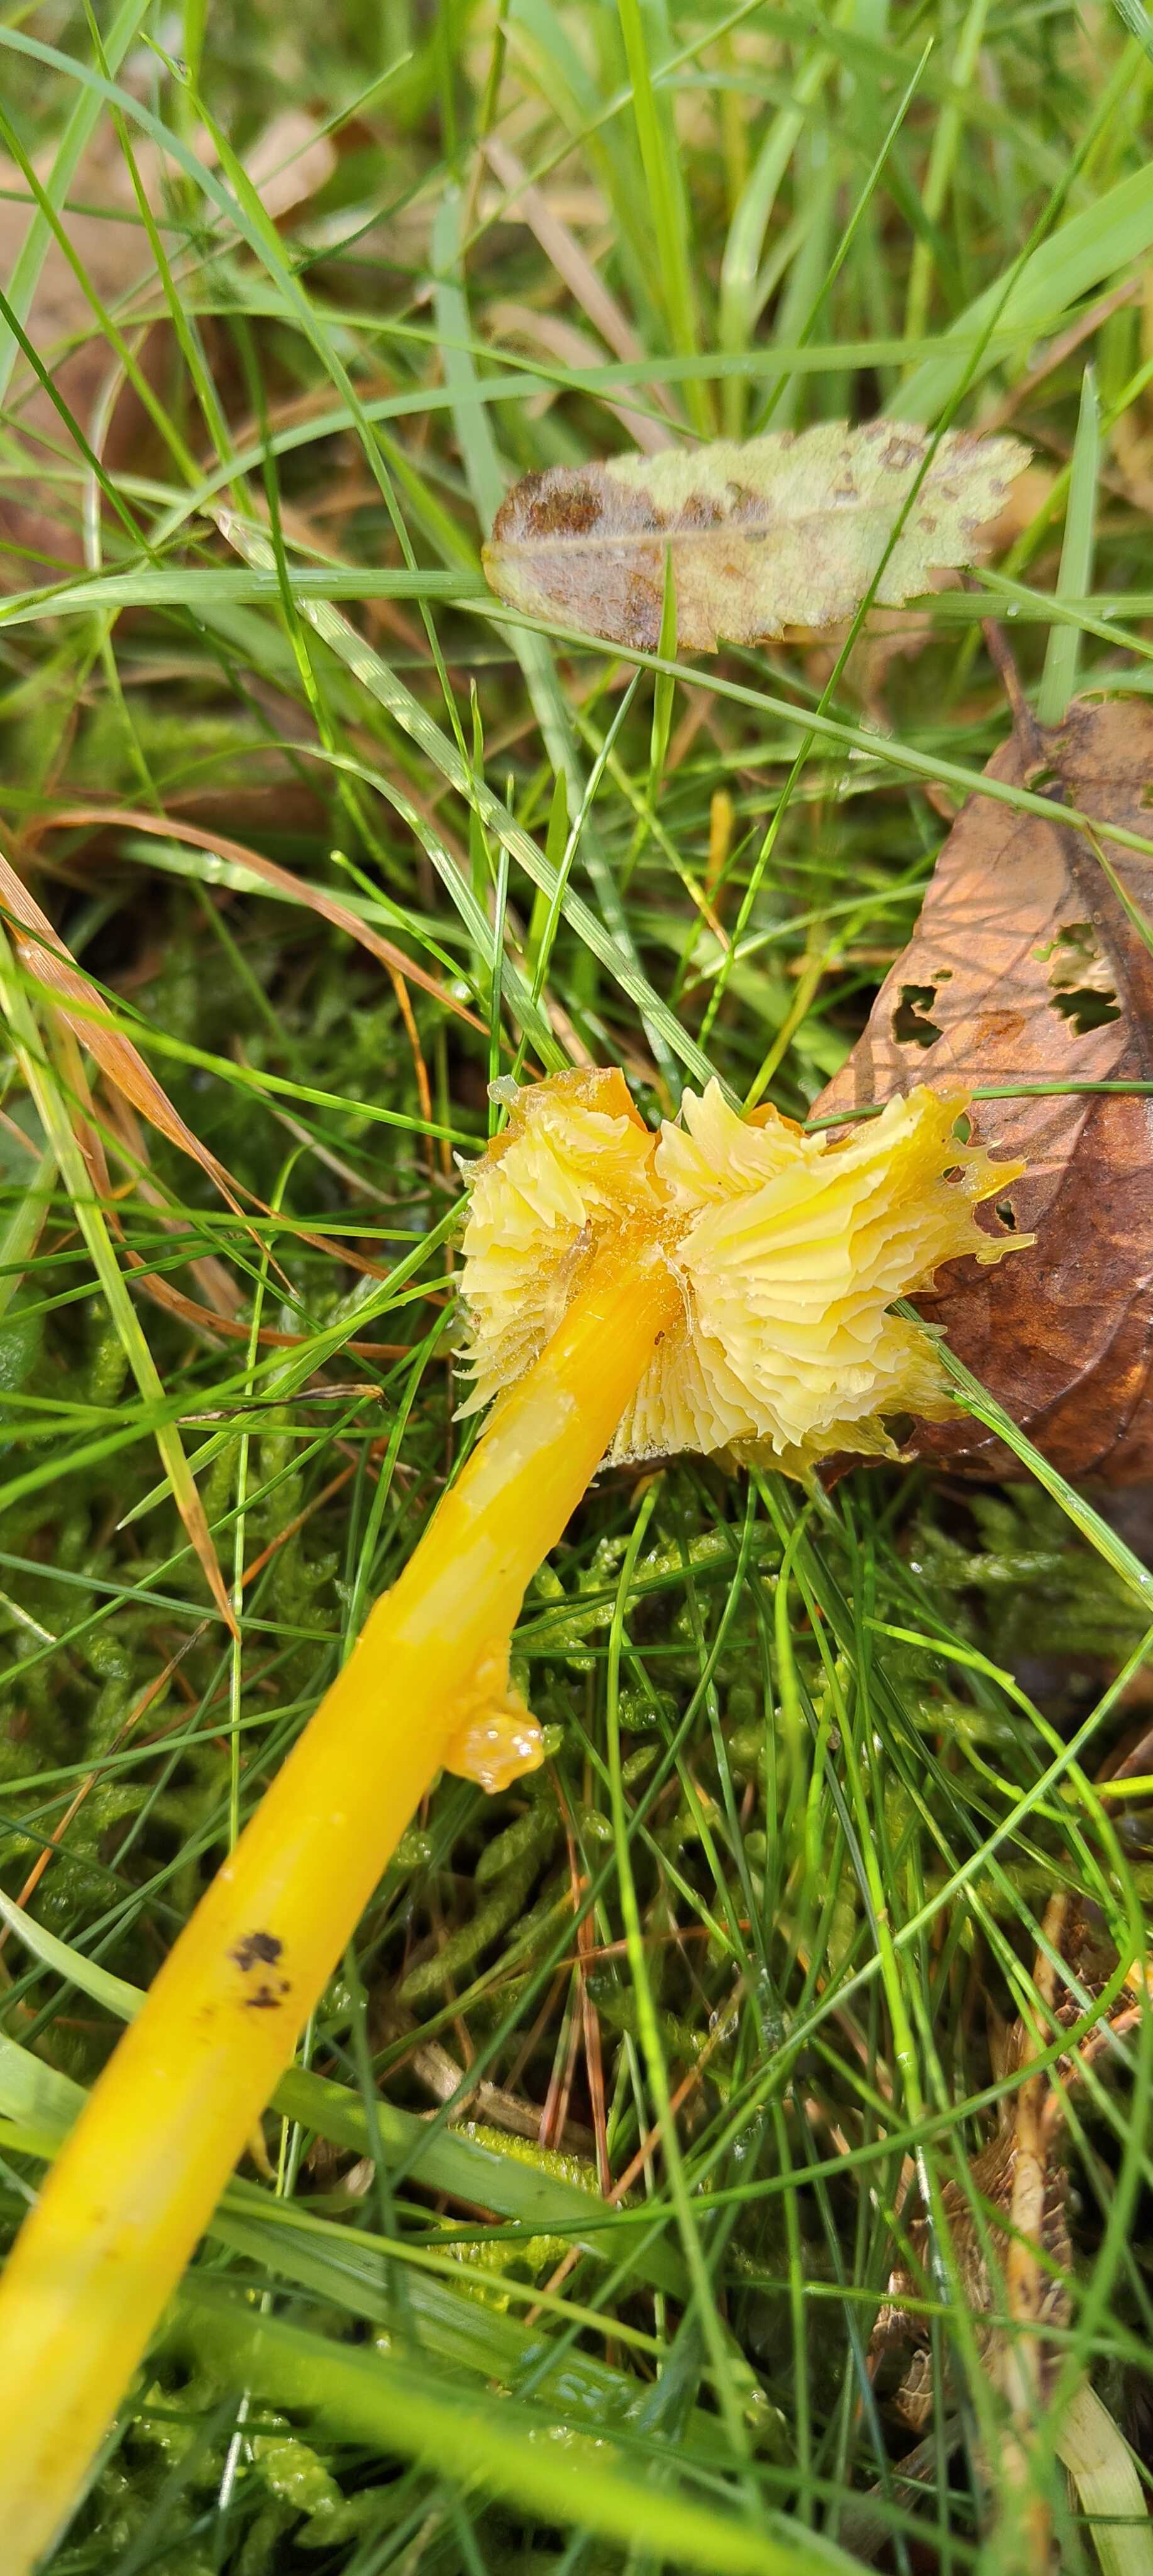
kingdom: Fungi
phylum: Basidiomycota
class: Agaricomycetes
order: Agaricales
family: Hygrophoraceae
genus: Hygrocybe
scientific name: Hygrocybe
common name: vokshat
